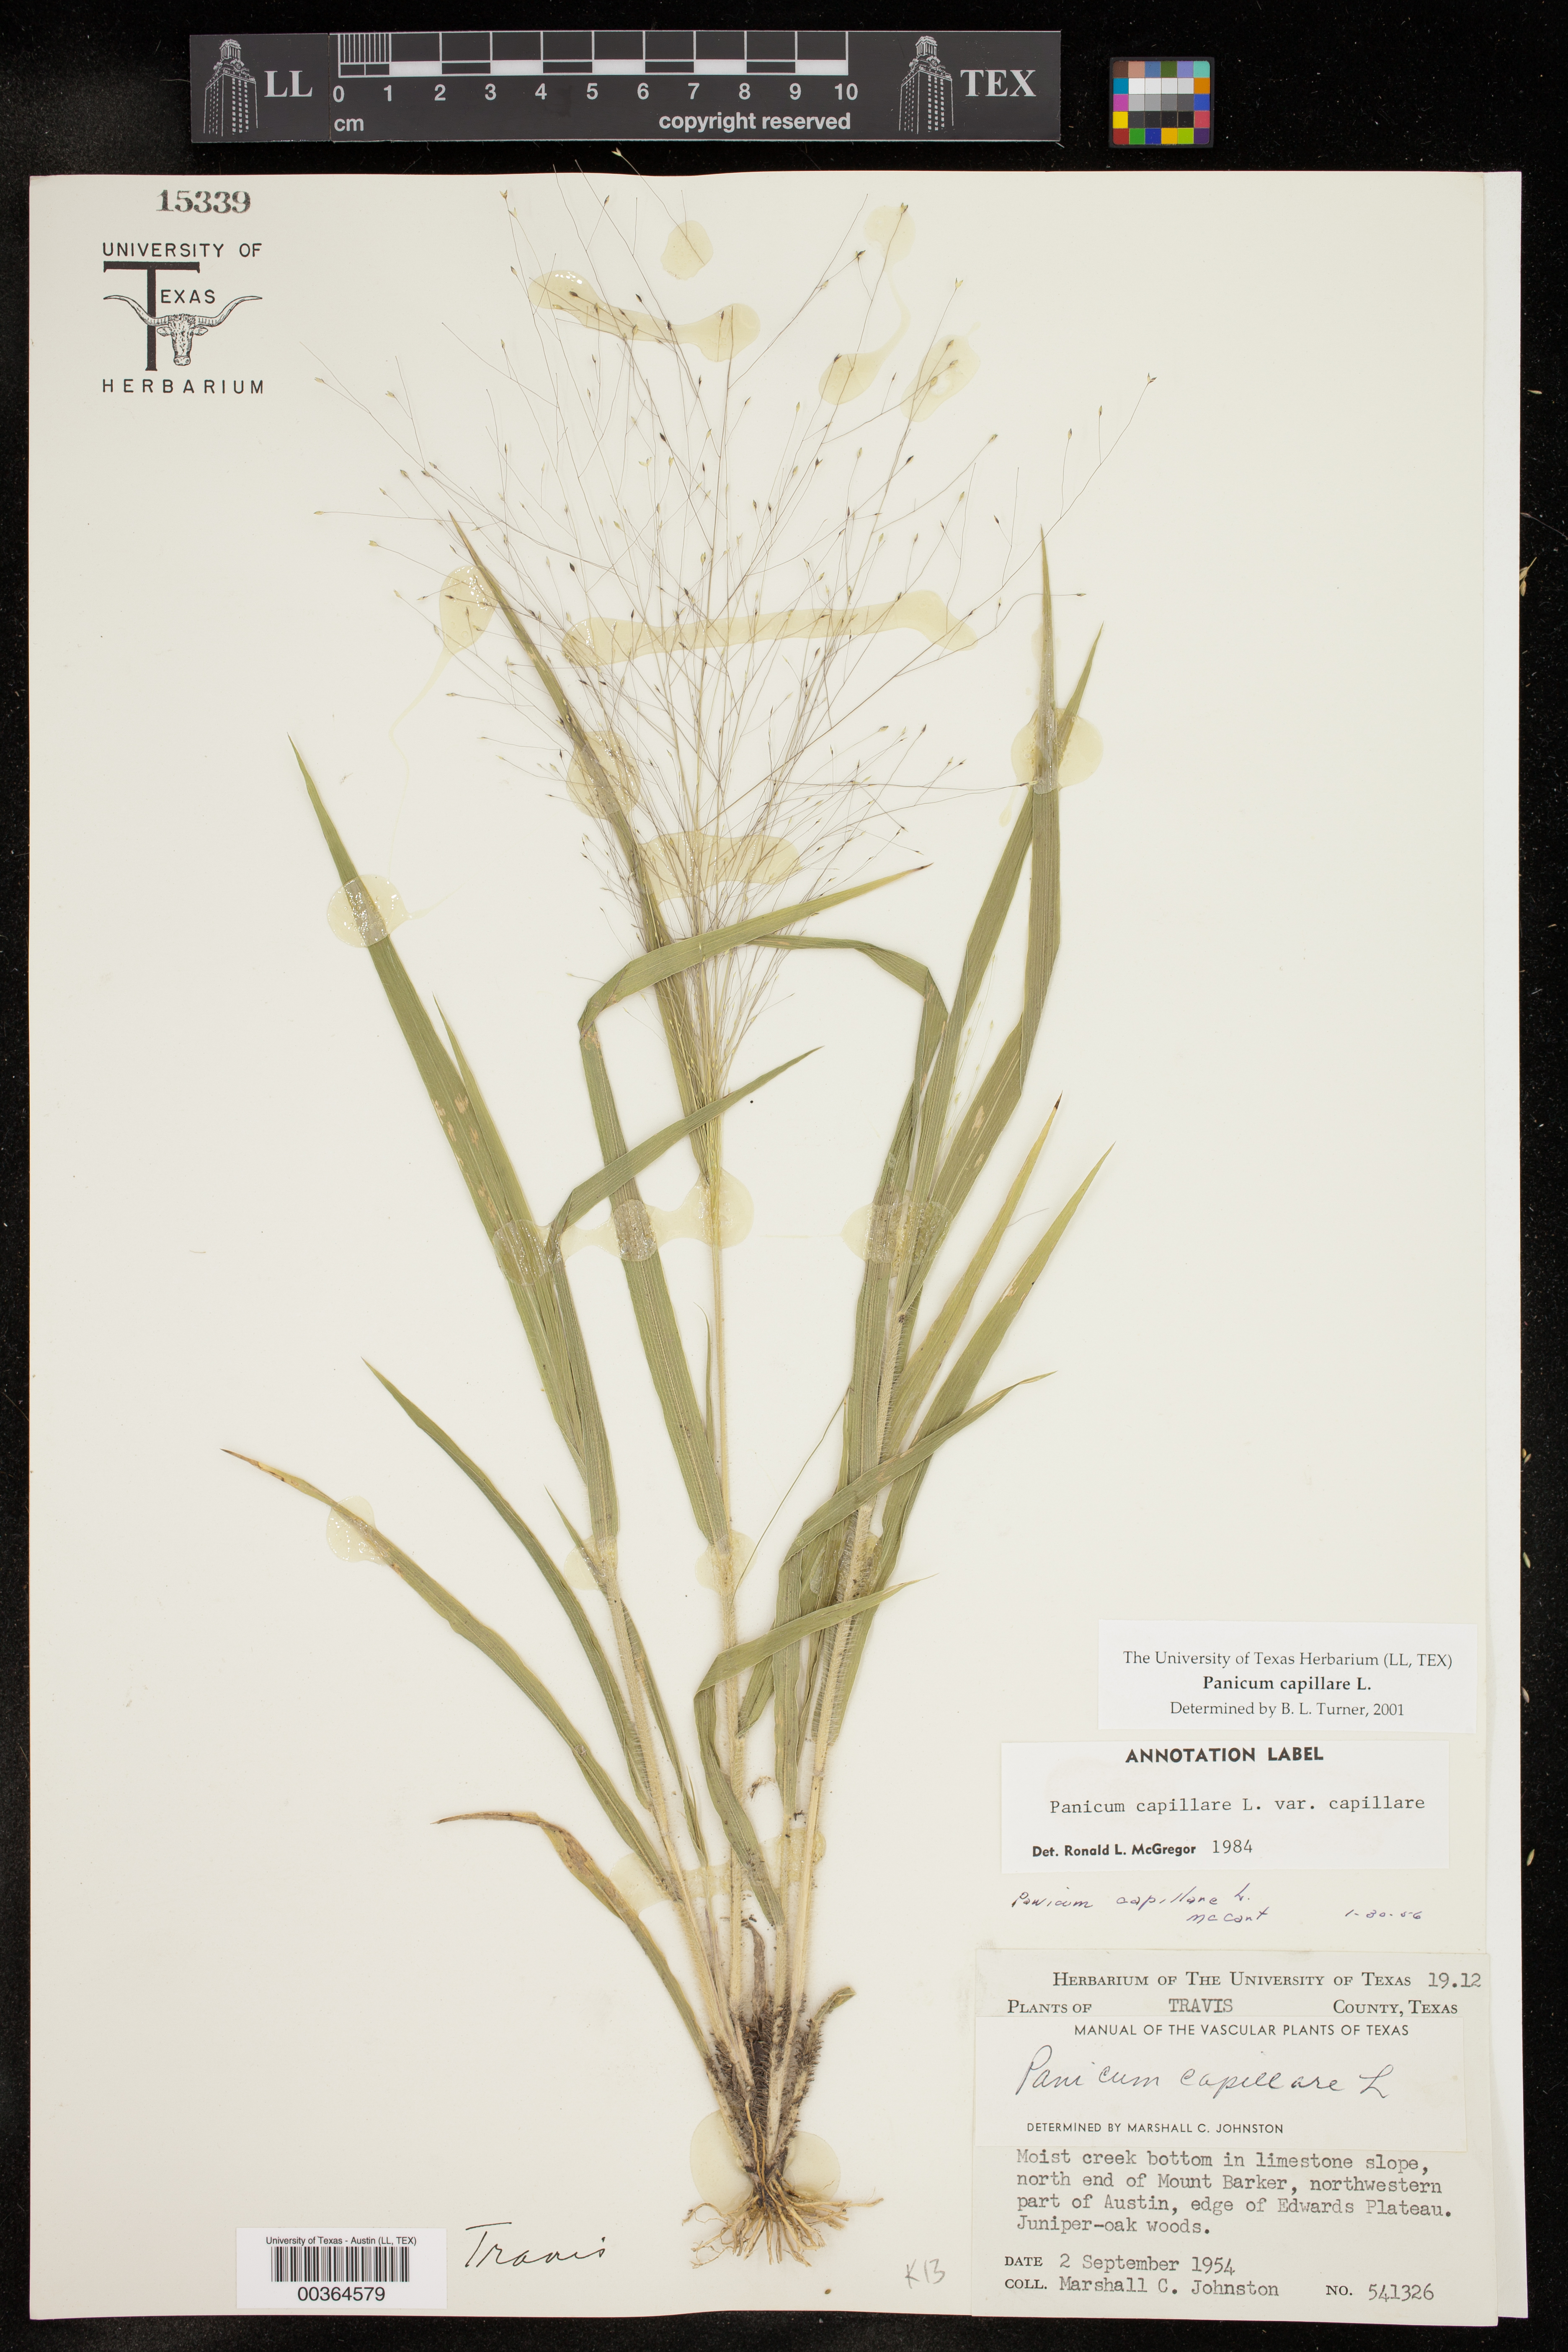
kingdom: Plantae
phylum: Tracheophyta
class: Liliopsida
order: Poales
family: Poaceae
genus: Panicum
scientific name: Panicum capillare
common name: Witch-grass
